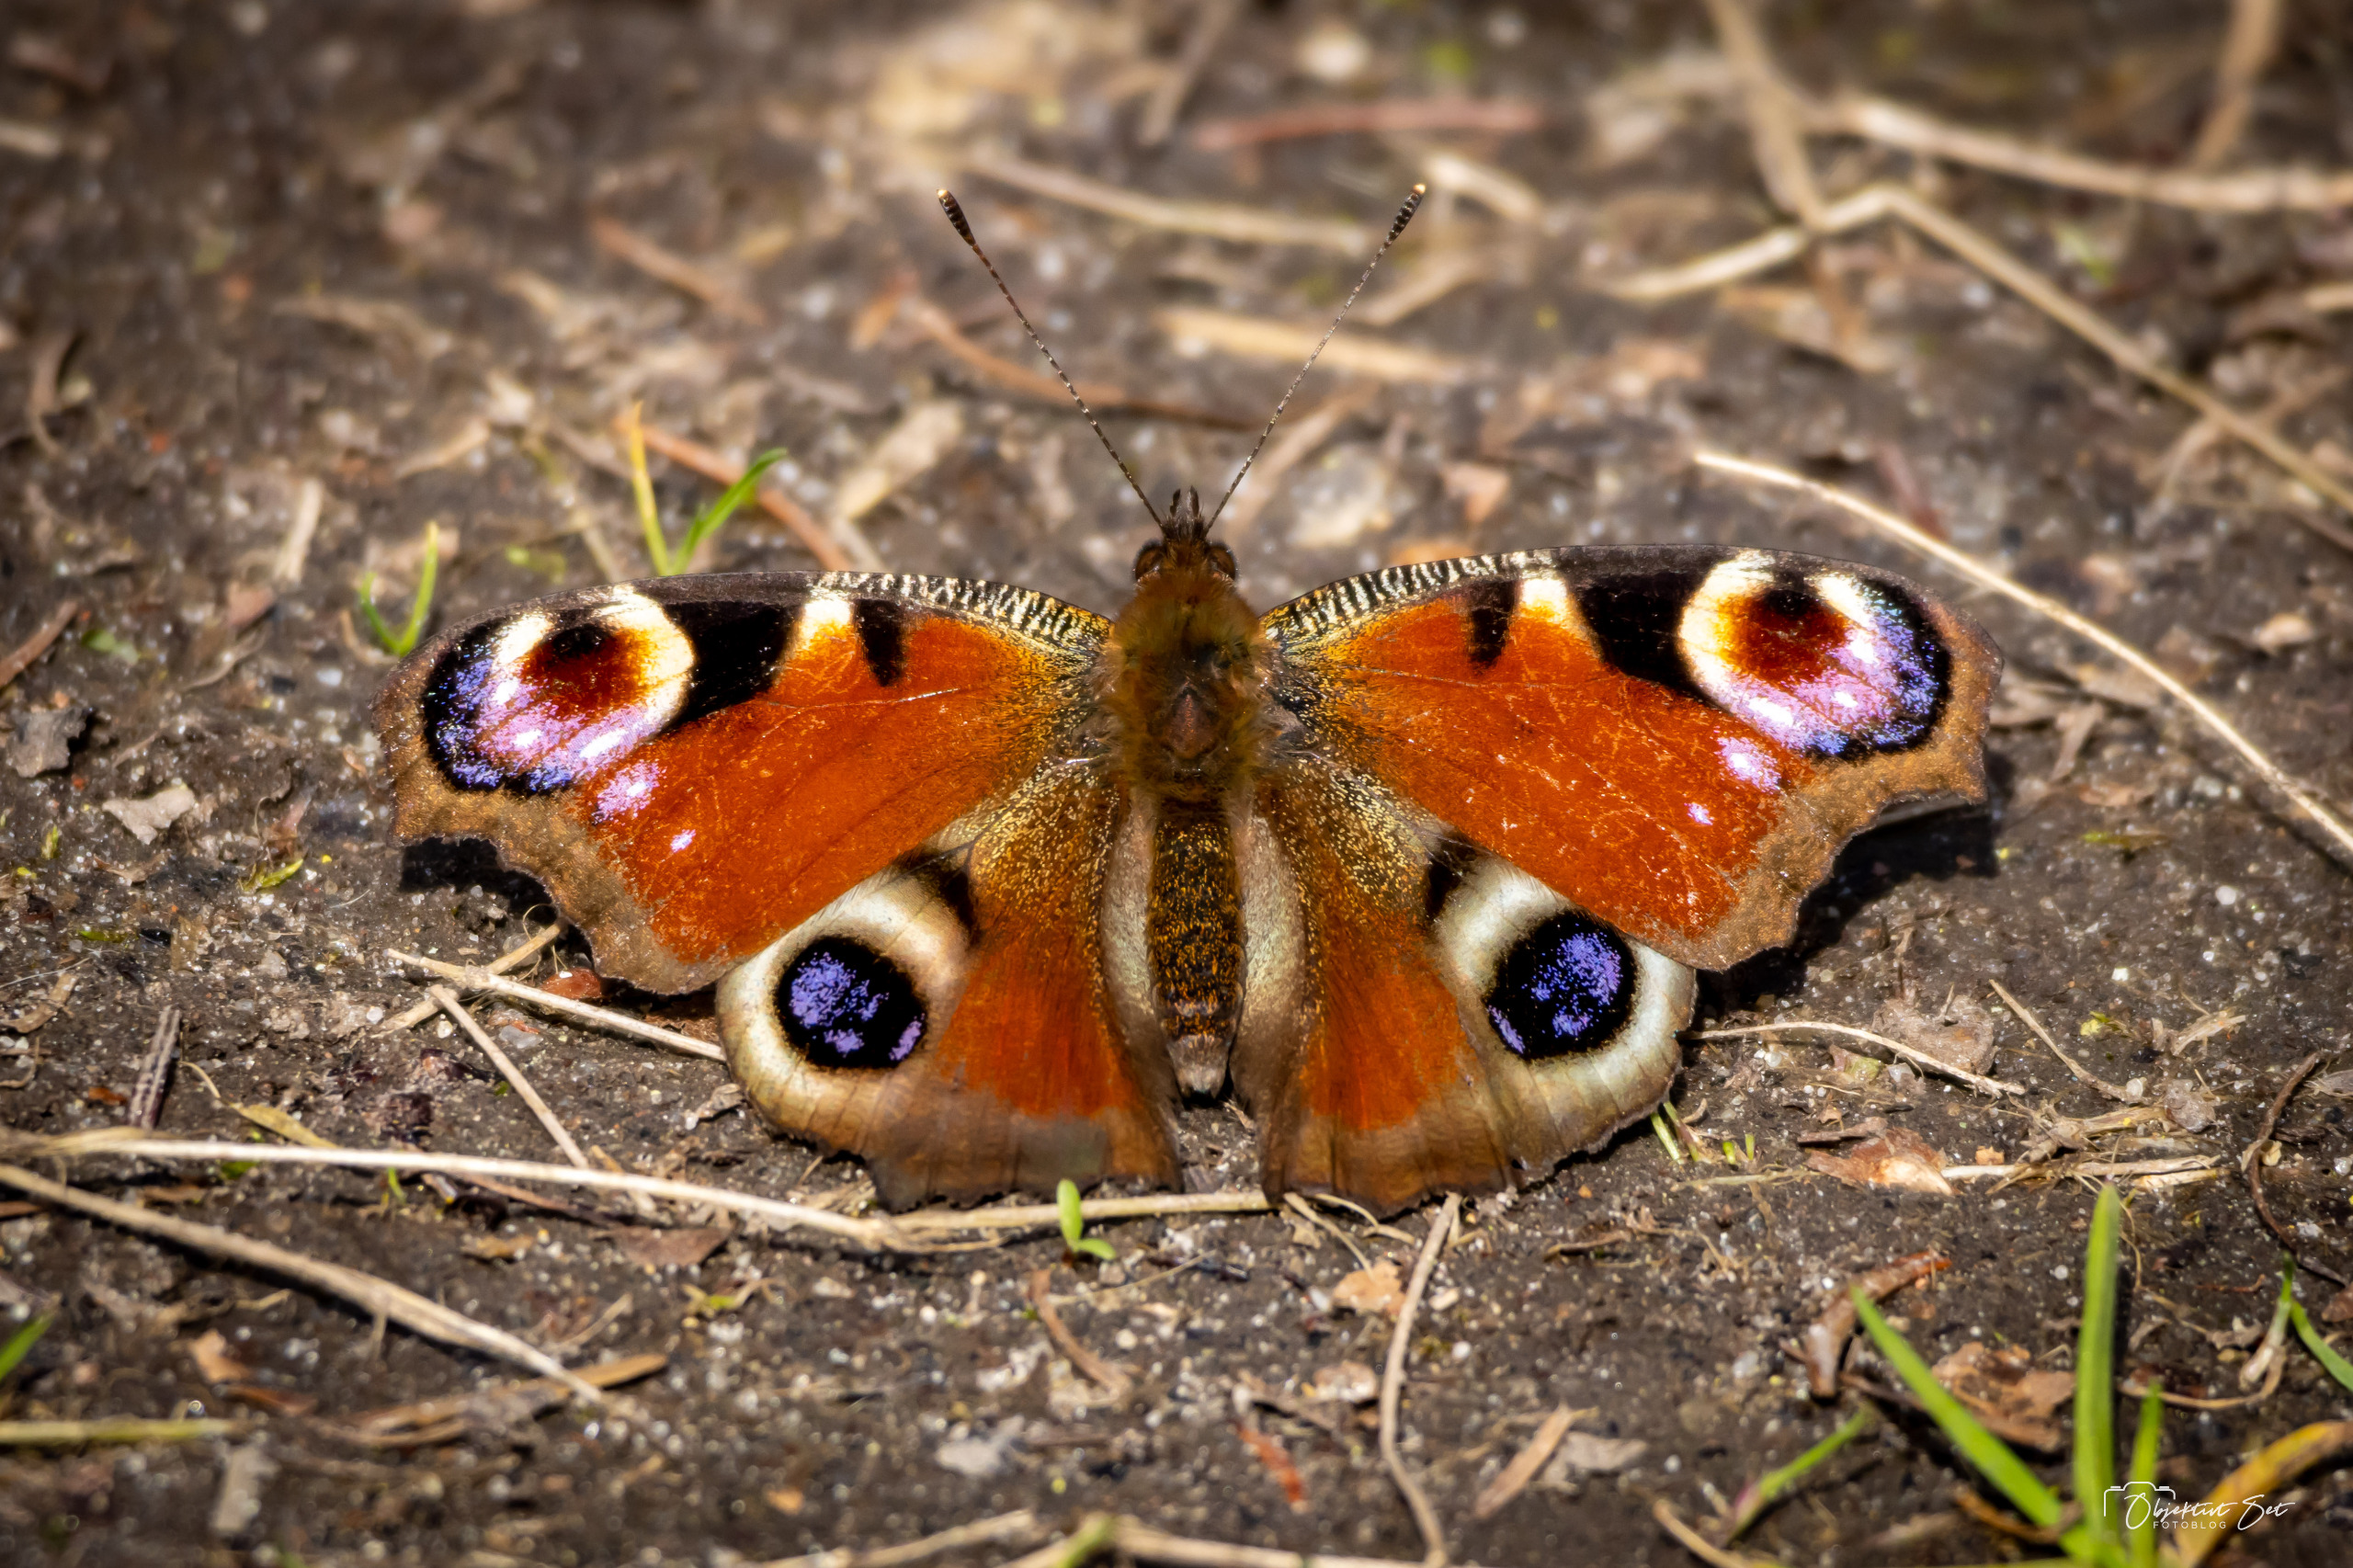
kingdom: Animalia
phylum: Arthropoda
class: Insecta
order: Lepidoptera
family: Nymphalidae
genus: Aglais
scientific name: Aglais io
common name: Dagpåfugleøje
